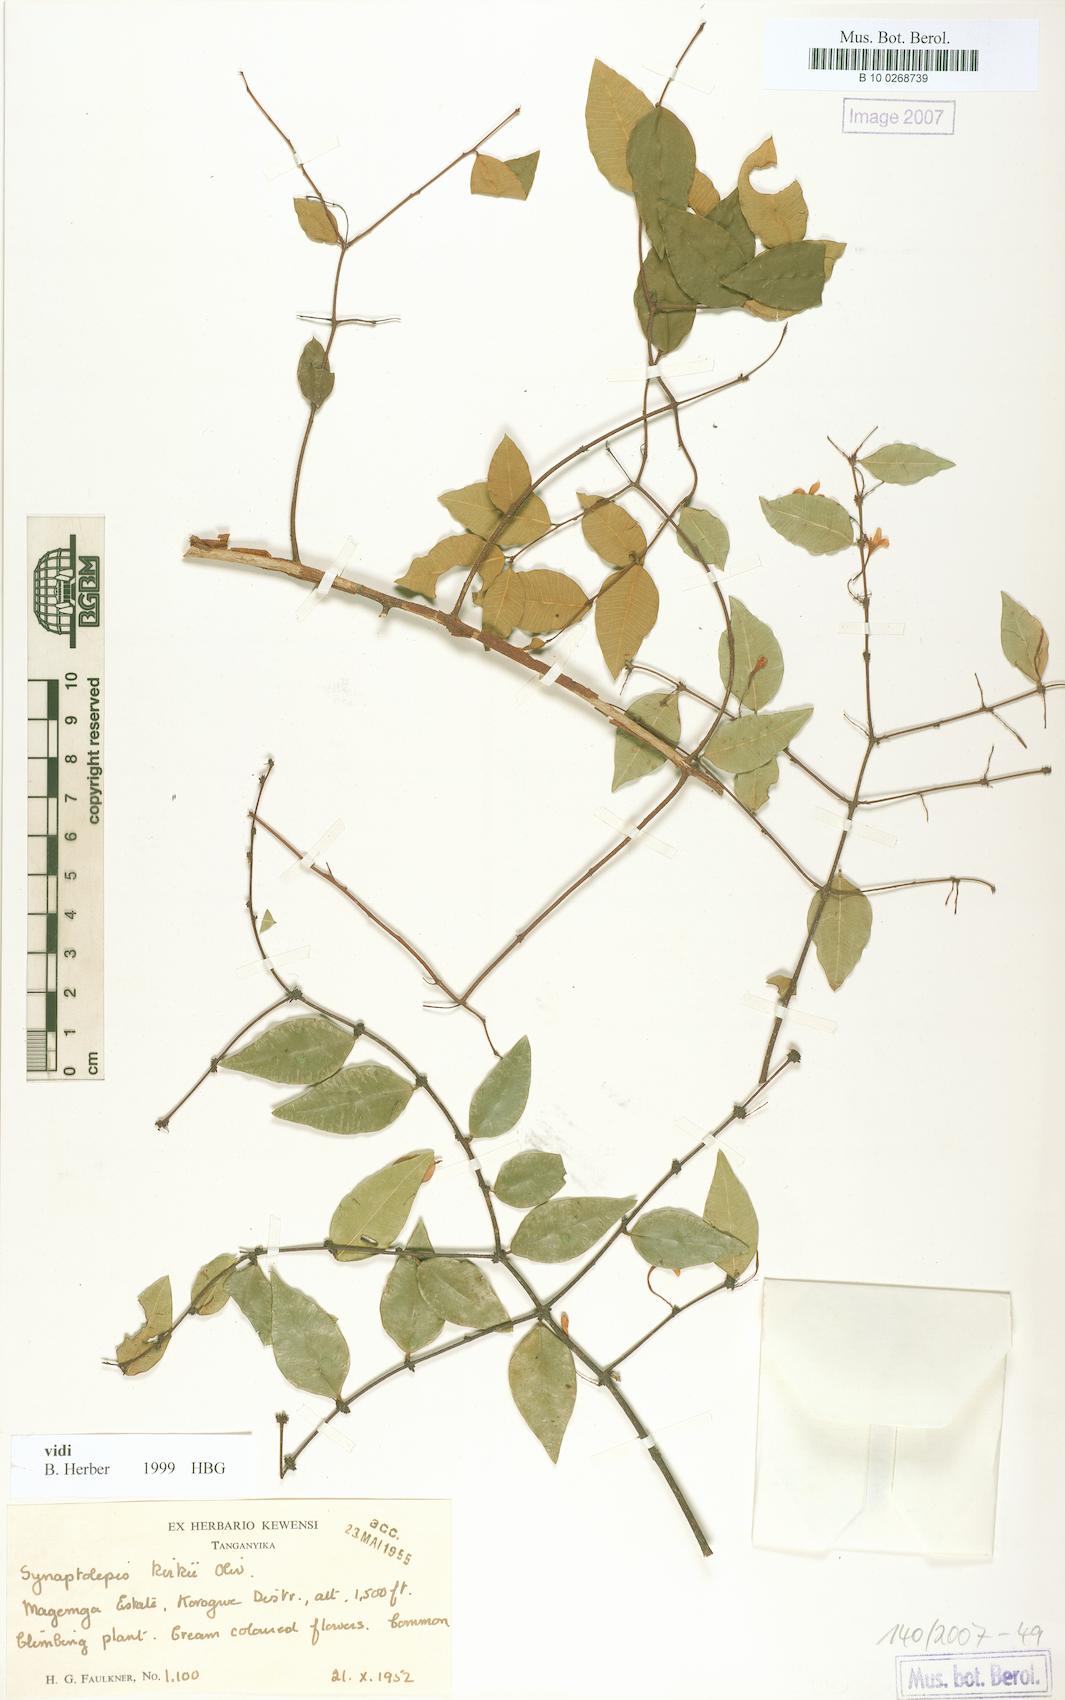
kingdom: Plantae
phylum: Tracheophyta
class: Magnoliopsida
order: Malvales
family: Thymelaeaceae
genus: Synaptolepis
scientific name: Synaptolepis kirkii
